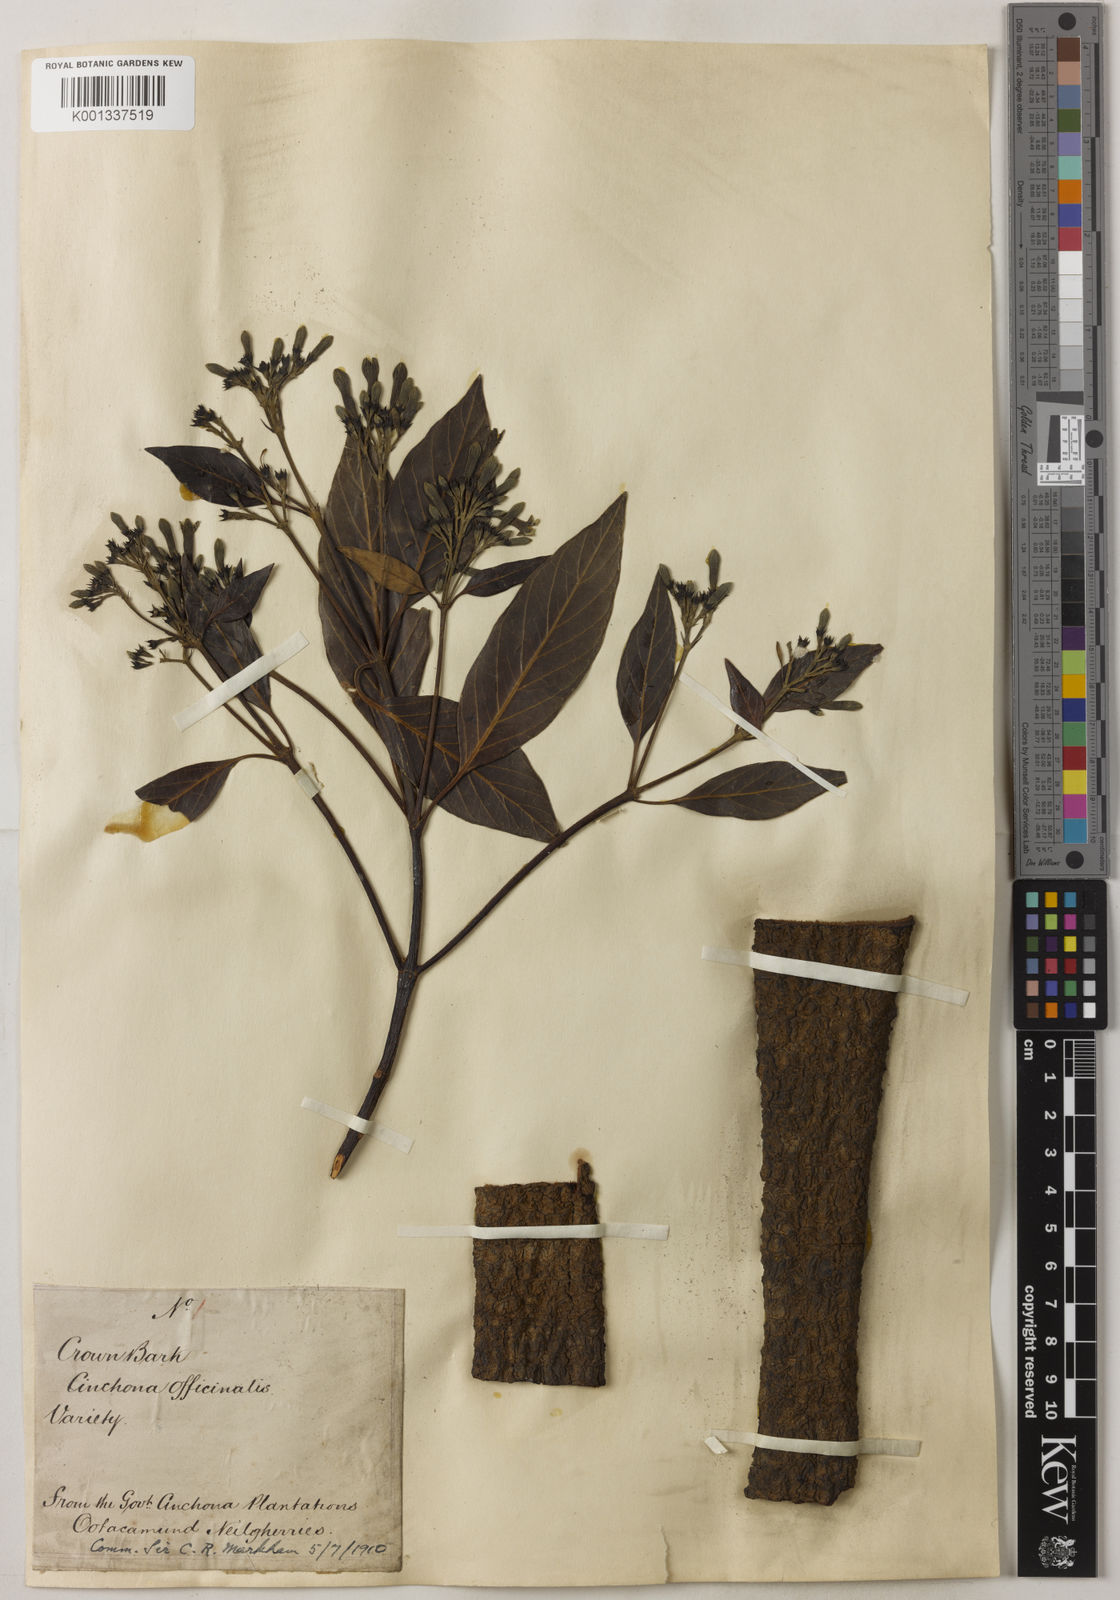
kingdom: Plantae
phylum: Tracheophyta
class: Magnoliopsida
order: Gentianales
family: Rubiaceae
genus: Cinchona
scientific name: Cinchona officinalis
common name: Lojabark
